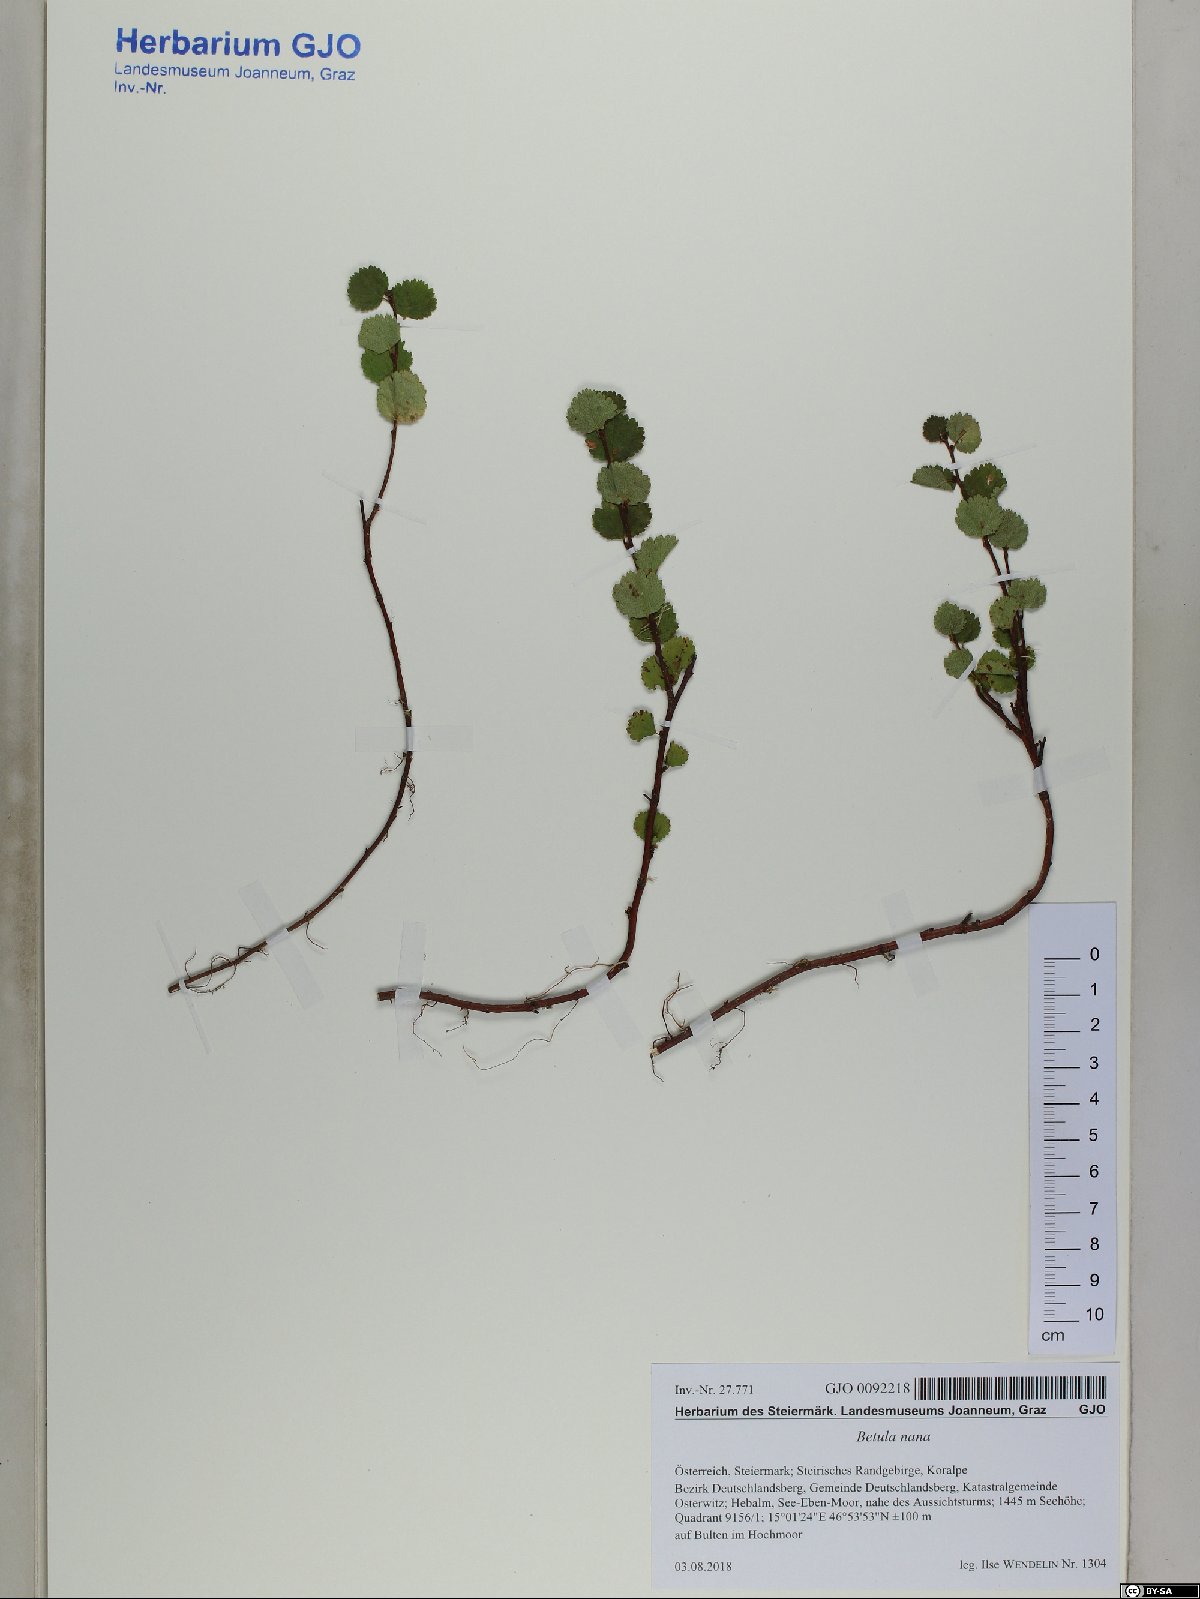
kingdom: Plantae
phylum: Tracheophyta
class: Magnoliopsida
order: Fagales
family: Betulaceae
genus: Betula
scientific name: Betula nana
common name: Arctic dwarf birch
